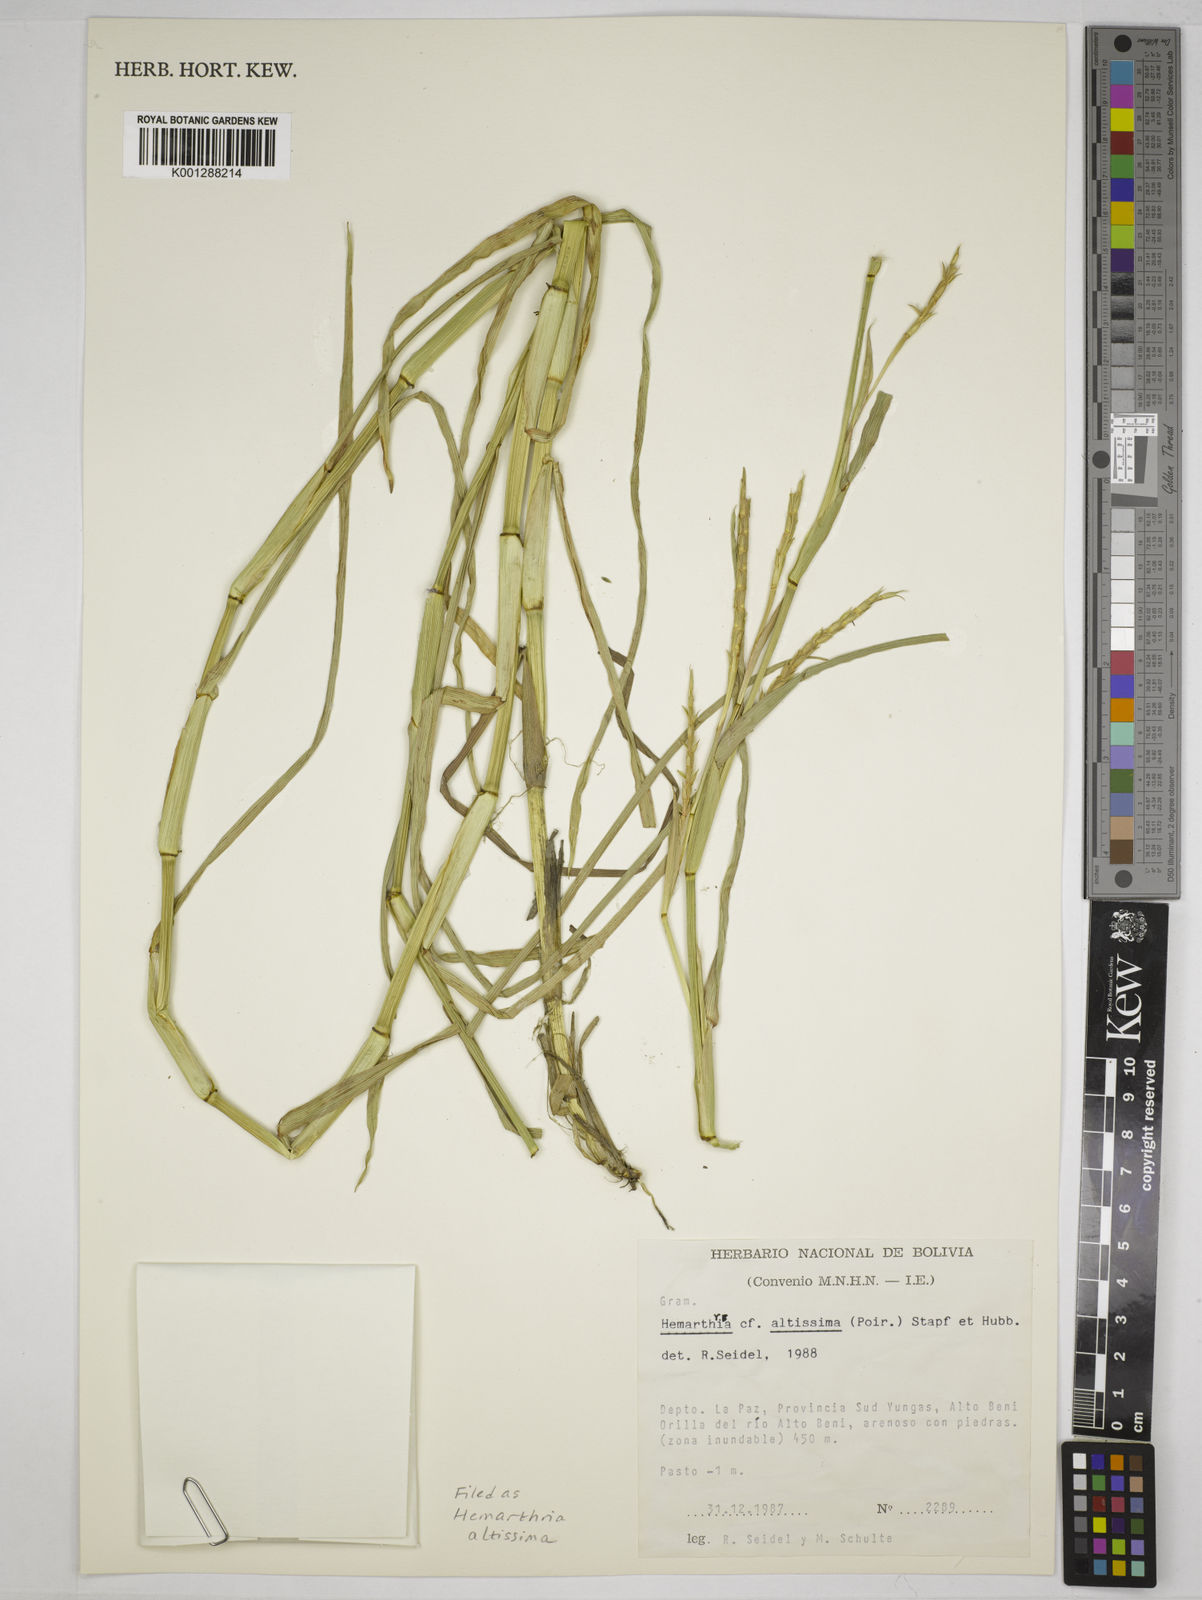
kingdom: Plantae
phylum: Tracheophyta
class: Liliopsida
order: Poales
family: Poaceae
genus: Hemarthria
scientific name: Hemarthria altissima
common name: African jointgrass
